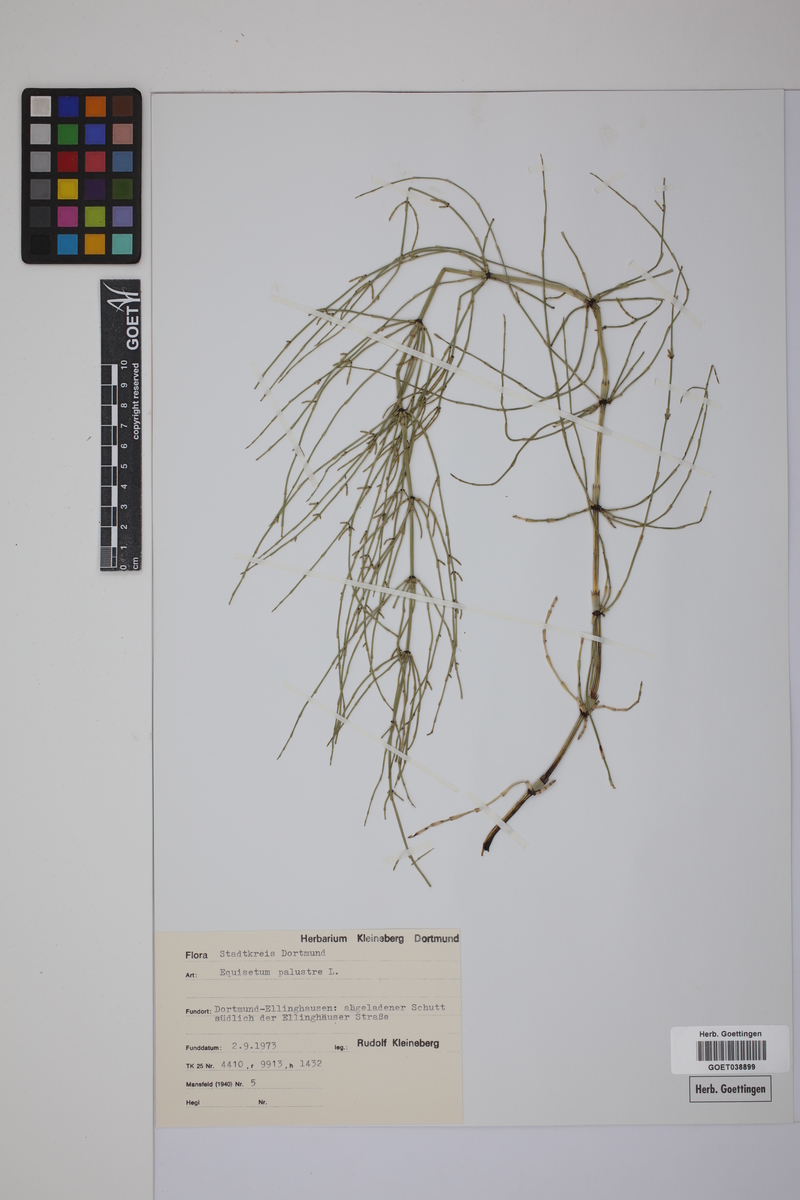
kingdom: Plantae
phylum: Tracheophyta
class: Polypodiopsida
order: Equisetales
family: Equisetaceae
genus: Equisetum
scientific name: Equisetum palustre
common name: Marsh horsetail
